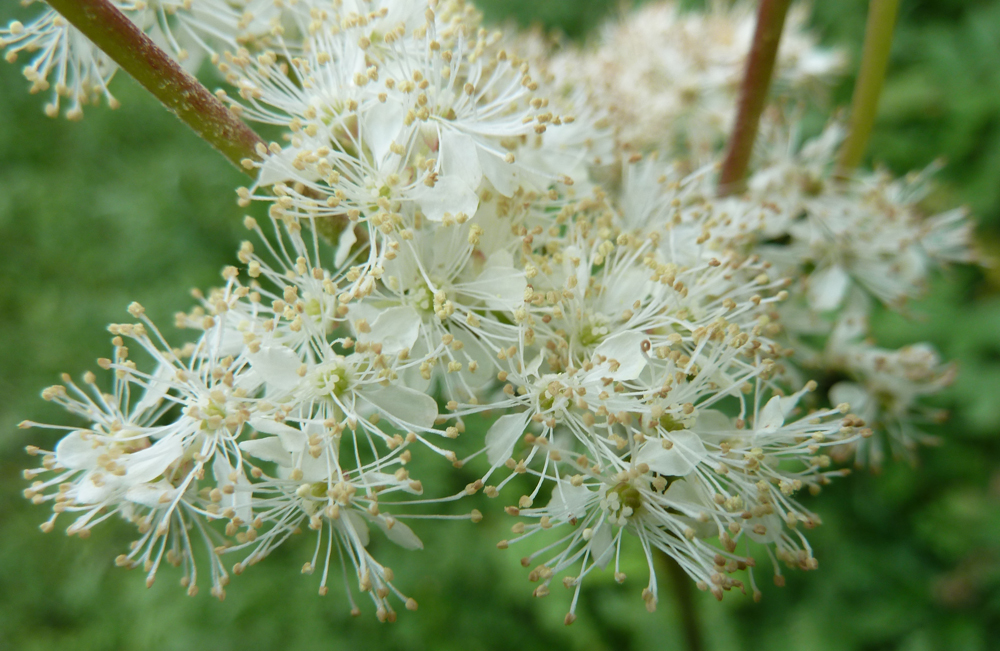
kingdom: Plantae
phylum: Tracheophyta
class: Magnoliopsida
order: Rosales
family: Rosaceae
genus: Filipendula
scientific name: Filipendula ulmaria
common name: Meadowsweet
